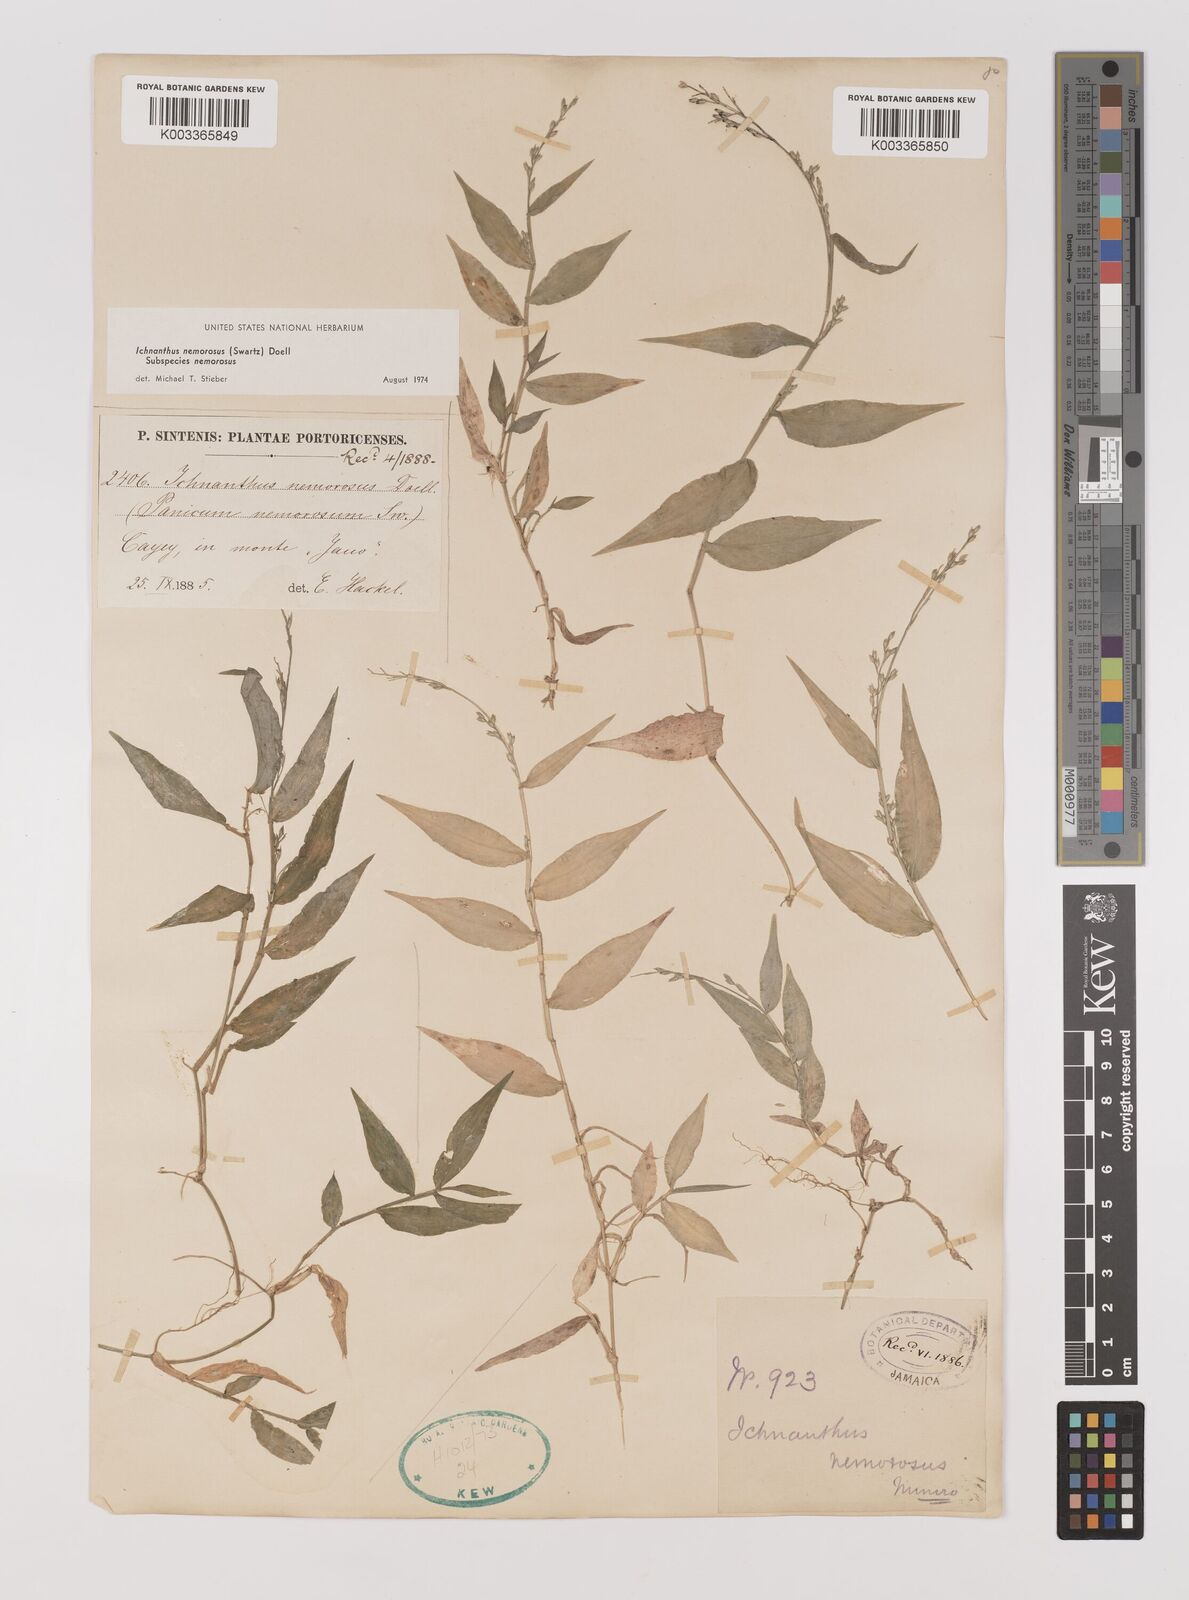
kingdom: Plantae
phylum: Tracheophyta
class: Liliopsida
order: Poales
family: Poaceae
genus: Ichnanthus
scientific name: Ichnanthus nemorosus
